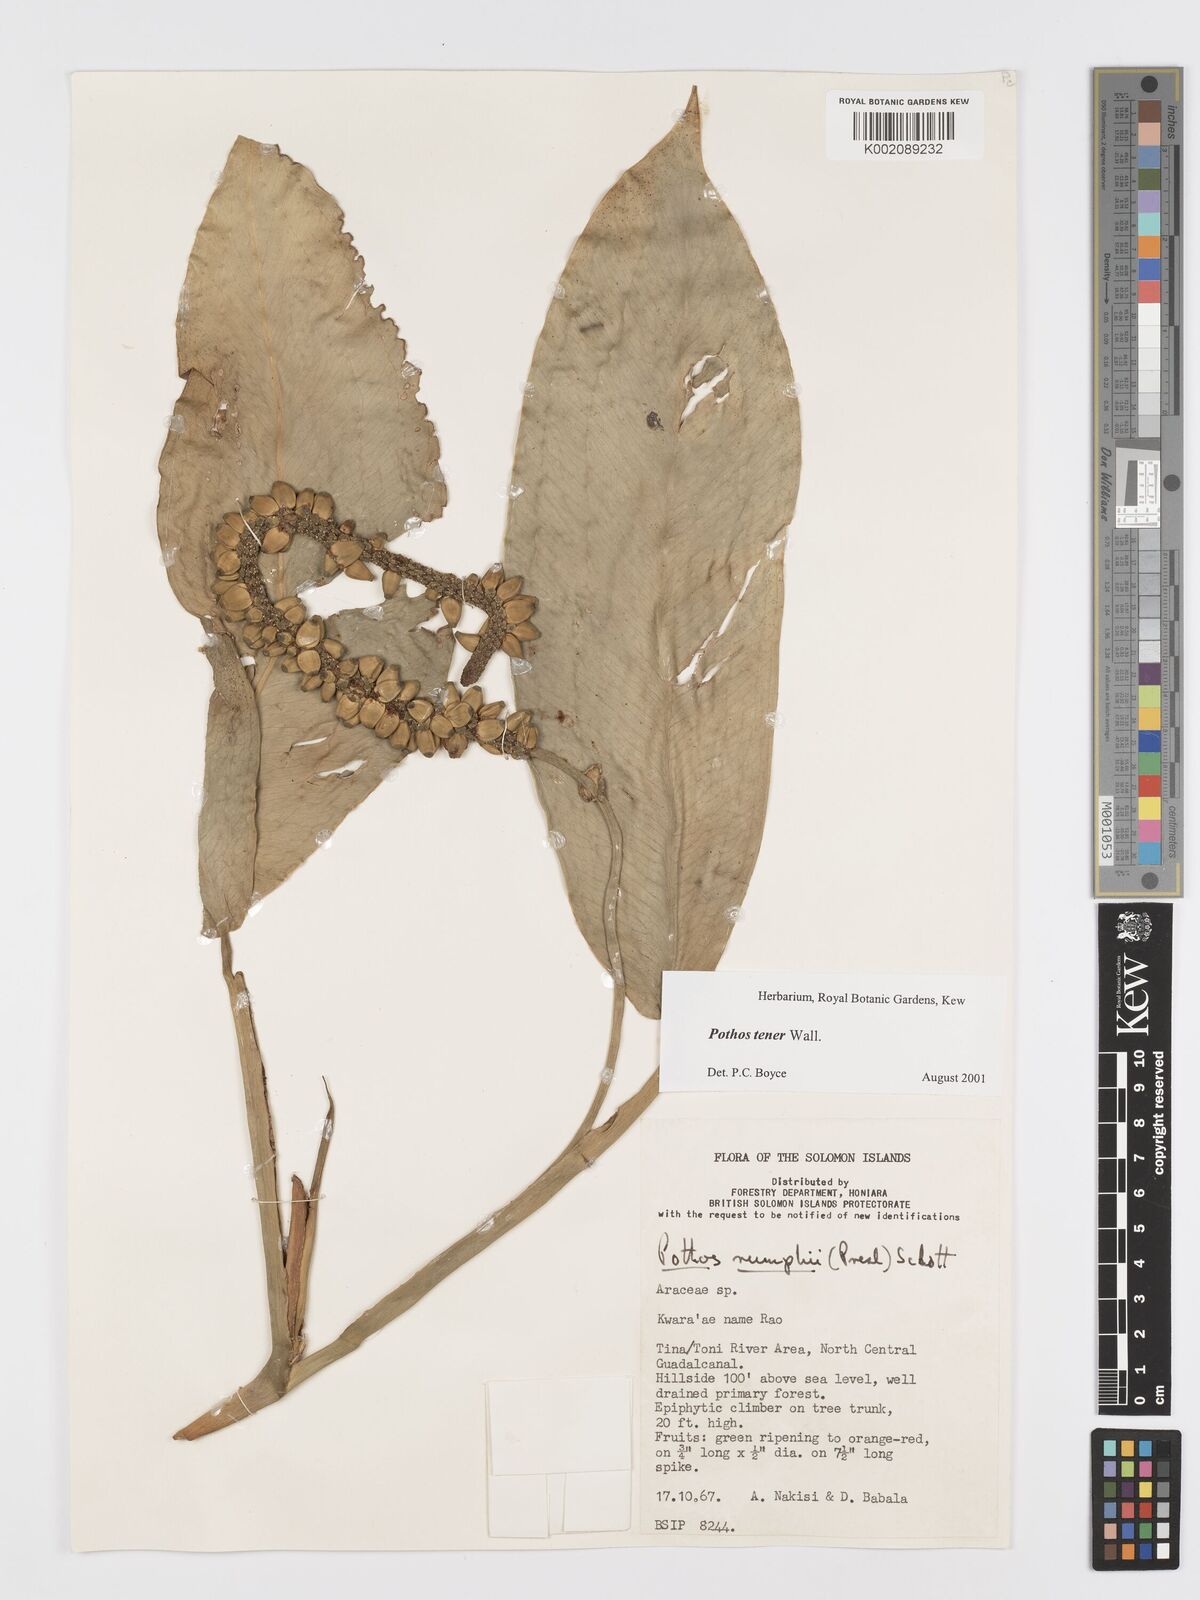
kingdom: Plantae
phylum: Tracheophyta
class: Liliopsida
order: Alismatales
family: Araceae
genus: Pothos
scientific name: Pothos tener
